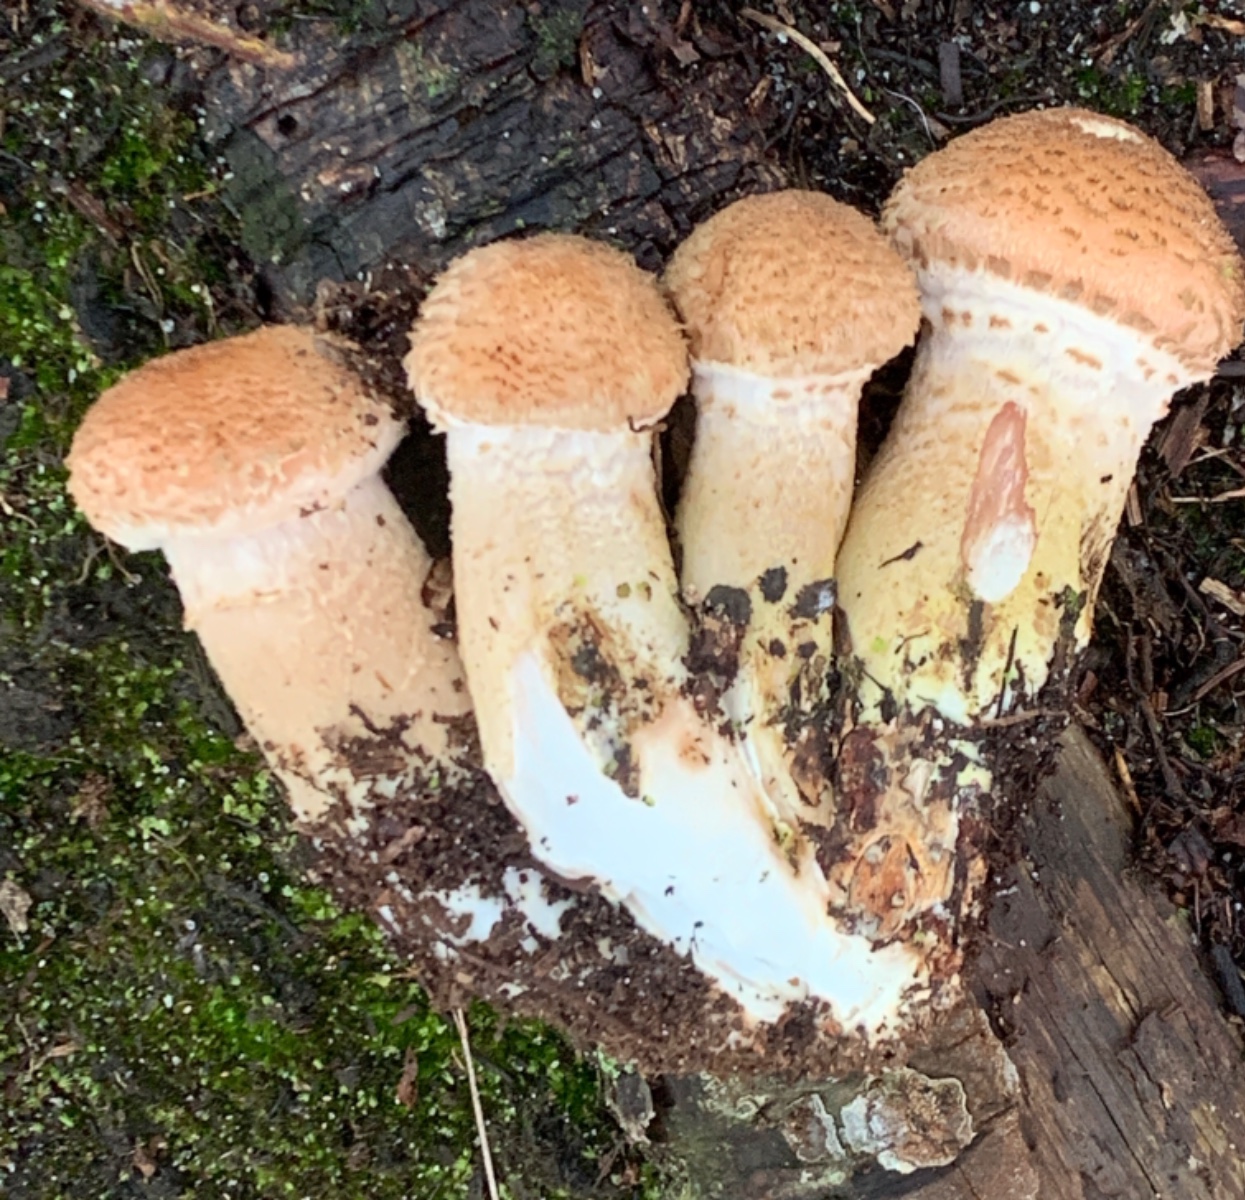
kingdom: Fungi
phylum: Basidiomycota
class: Agaricomycetes
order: Agaricales
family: Physalacriaceae
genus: Armillaria
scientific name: Armillaria ostoyae
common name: mørk honningsvamp
